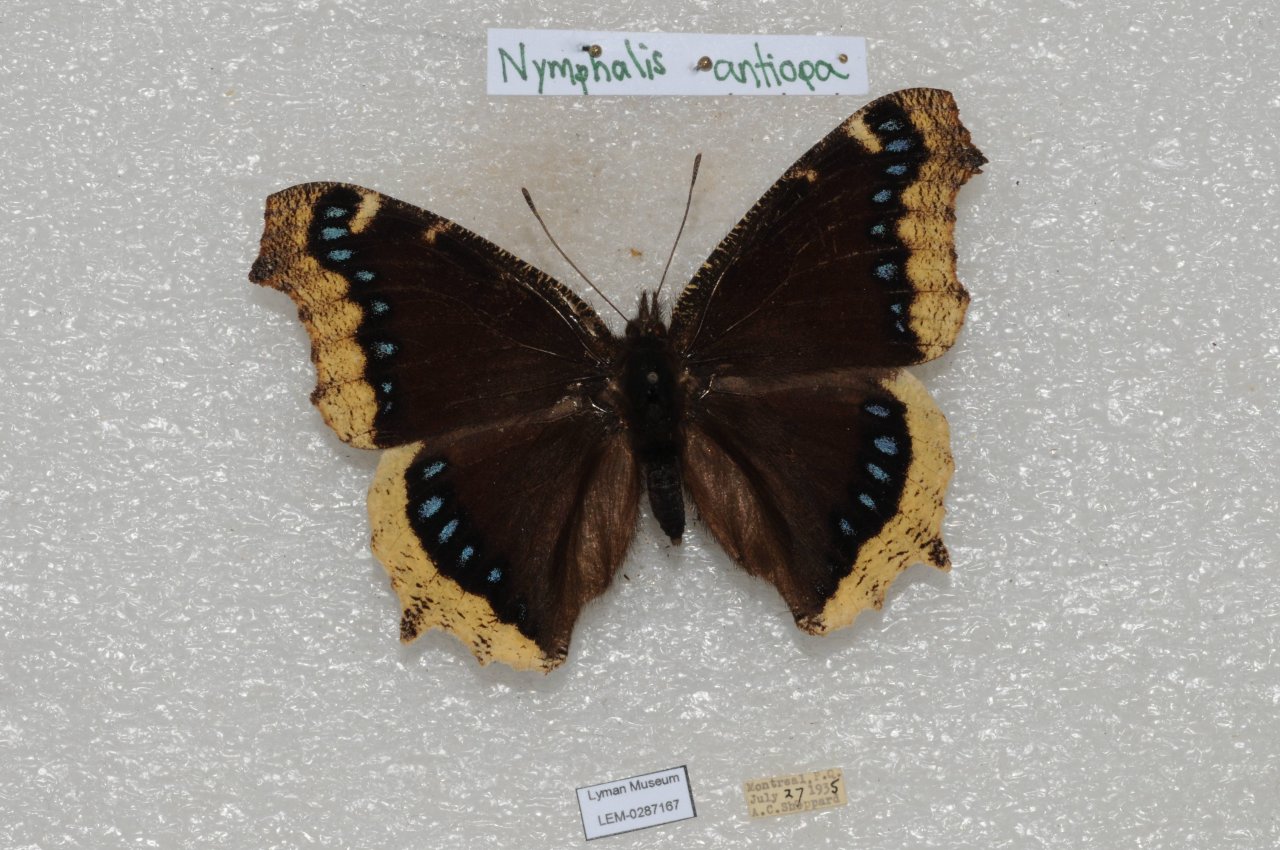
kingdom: Animalia
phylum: Arthropoda
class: Insecta
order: Lepidoptera
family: Nymphalidae
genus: Nymphalis
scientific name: Nymphalis antiopa
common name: Mourning Cloak
